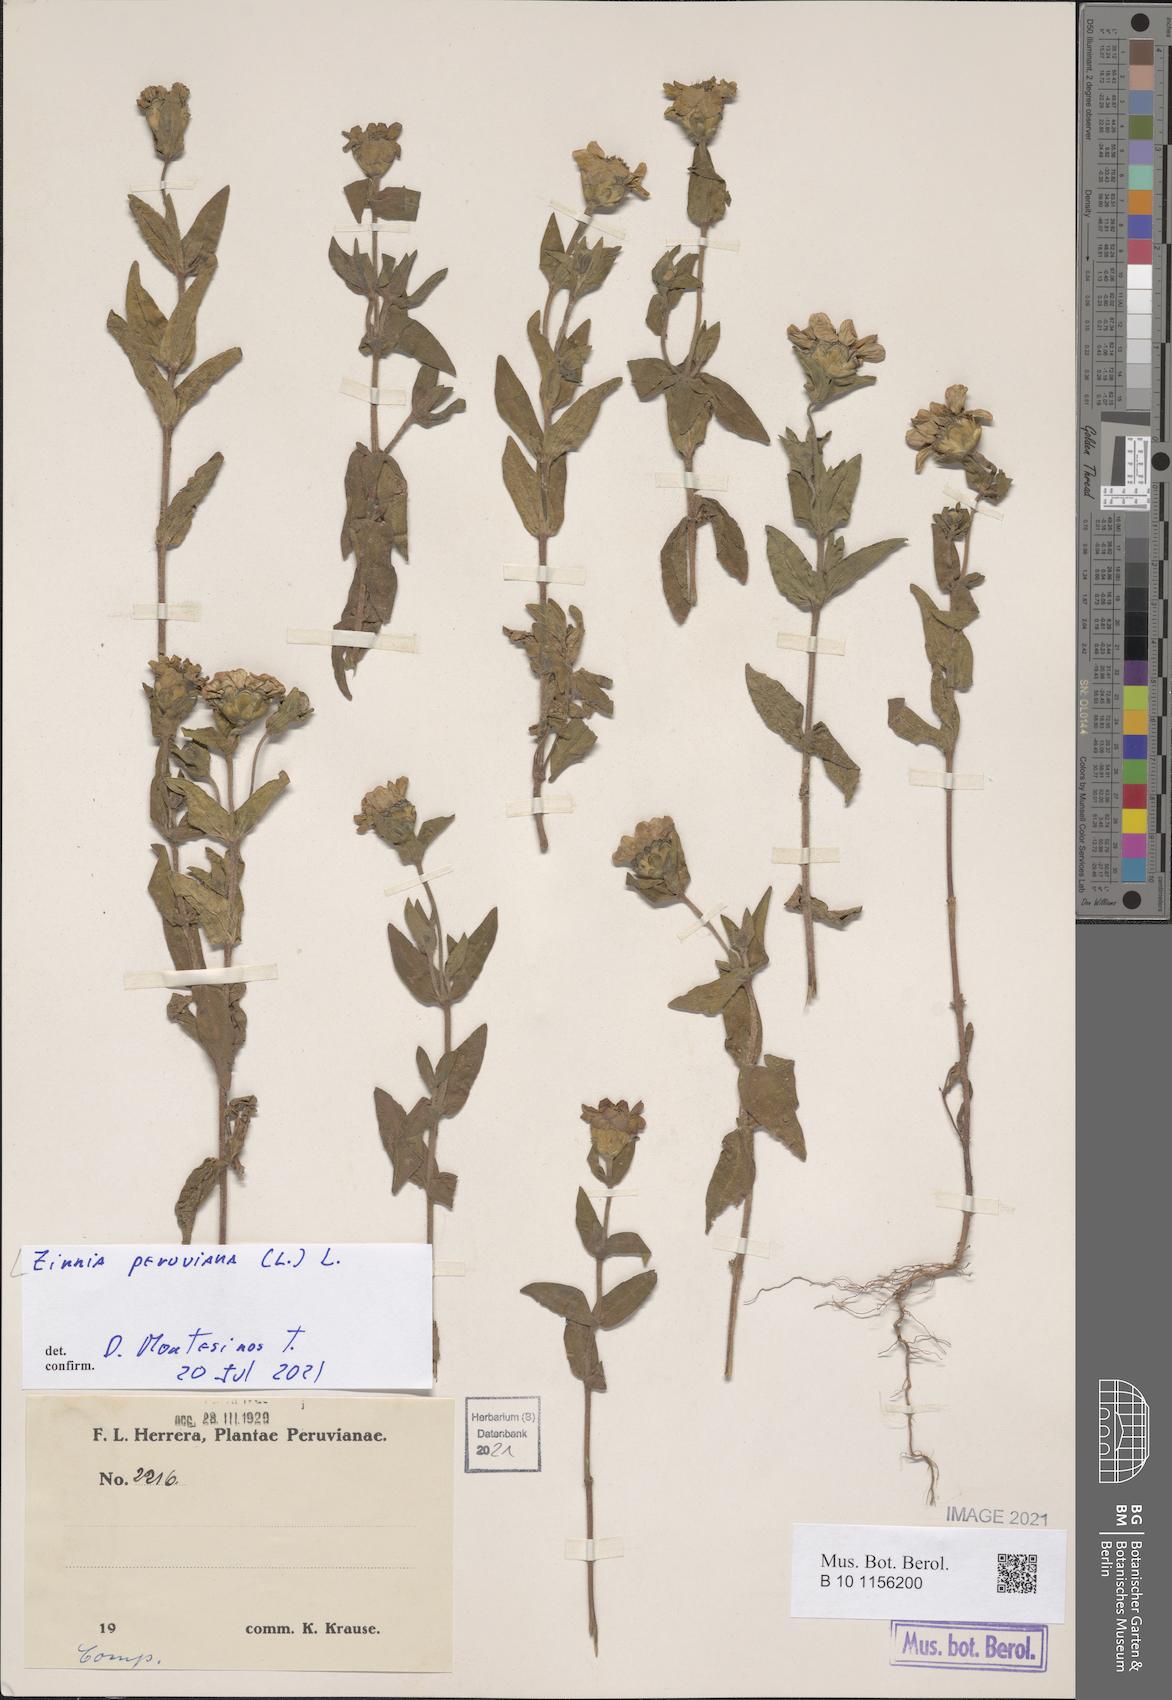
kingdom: Plantae
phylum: Tracheophyta
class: Magnoliopsida
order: Asterales
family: Asteraceae
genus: Zinnia
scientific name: Zinnia peruviana
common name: Peruvian zinnia
